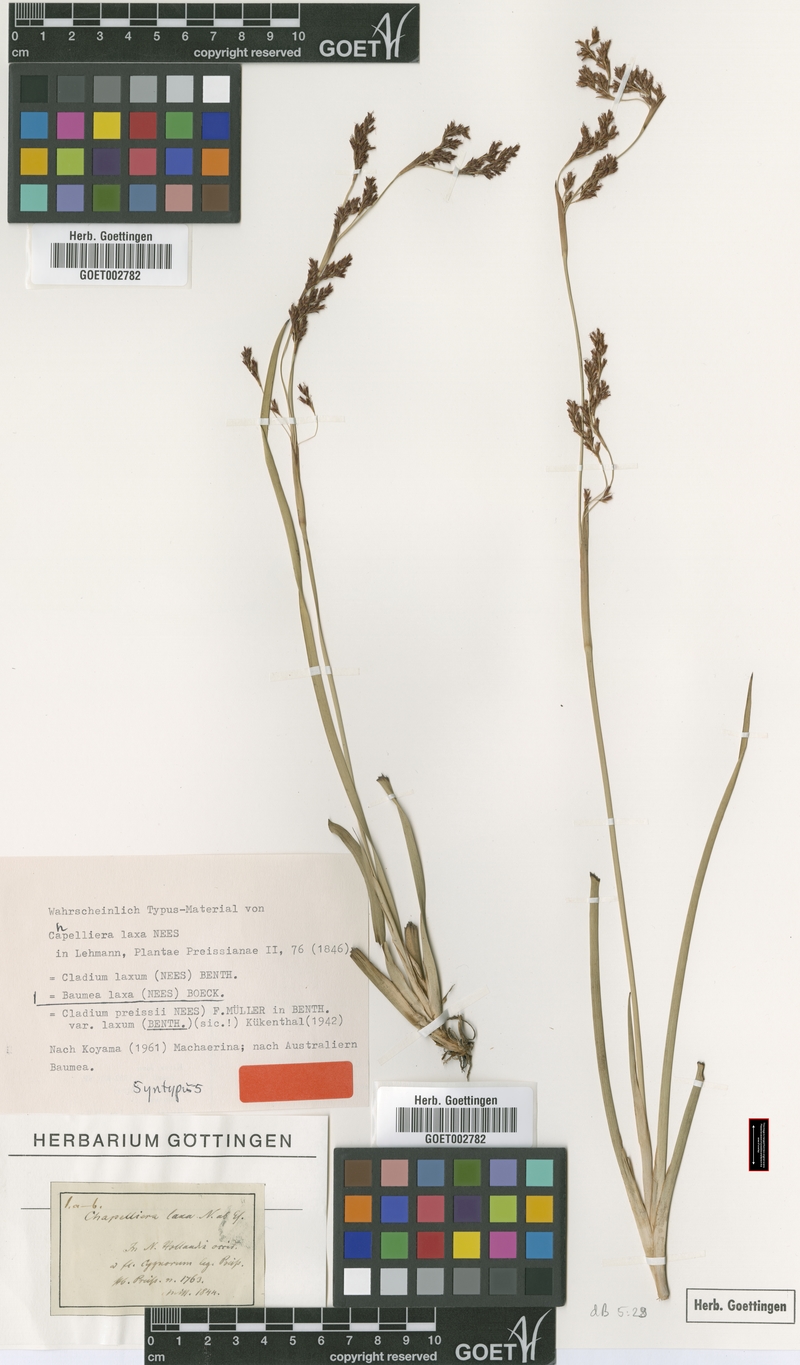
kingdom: Plantae
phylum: Tracheophyta
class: Liliopsida
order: Poales
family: Cyperaceae
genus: Machaerina
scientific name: Machaerina laxa
